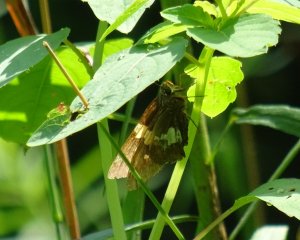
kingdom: Animalia
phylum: Arthropoda
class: Insecta
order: Lepidoptera
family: Hesperiidae
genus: Epargyreus
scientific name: Epargyreus clarus
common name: Silver-spotted Skipper
